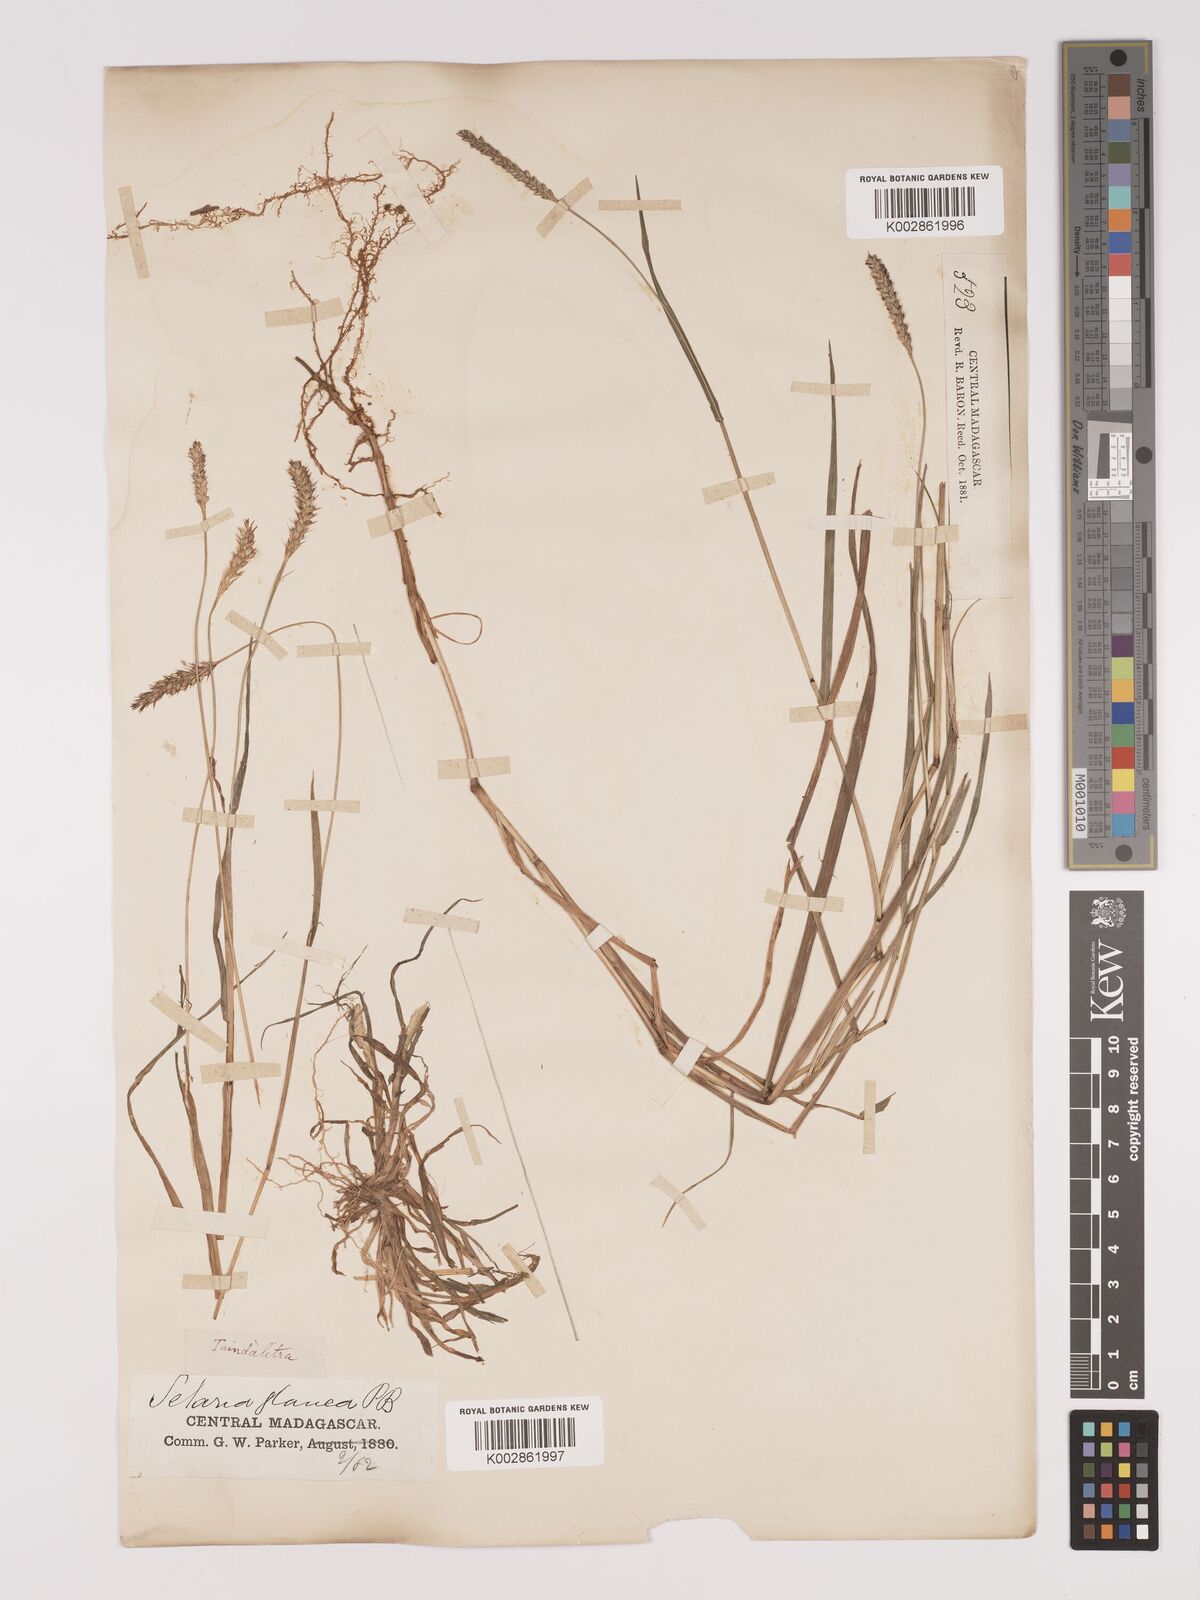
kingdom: Plantae
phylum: Tracheophyta
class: Liliopsida
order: Poales
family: Poaceae
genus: Setaria
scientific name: Setaria pumila
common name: Yellow bristle-grass
